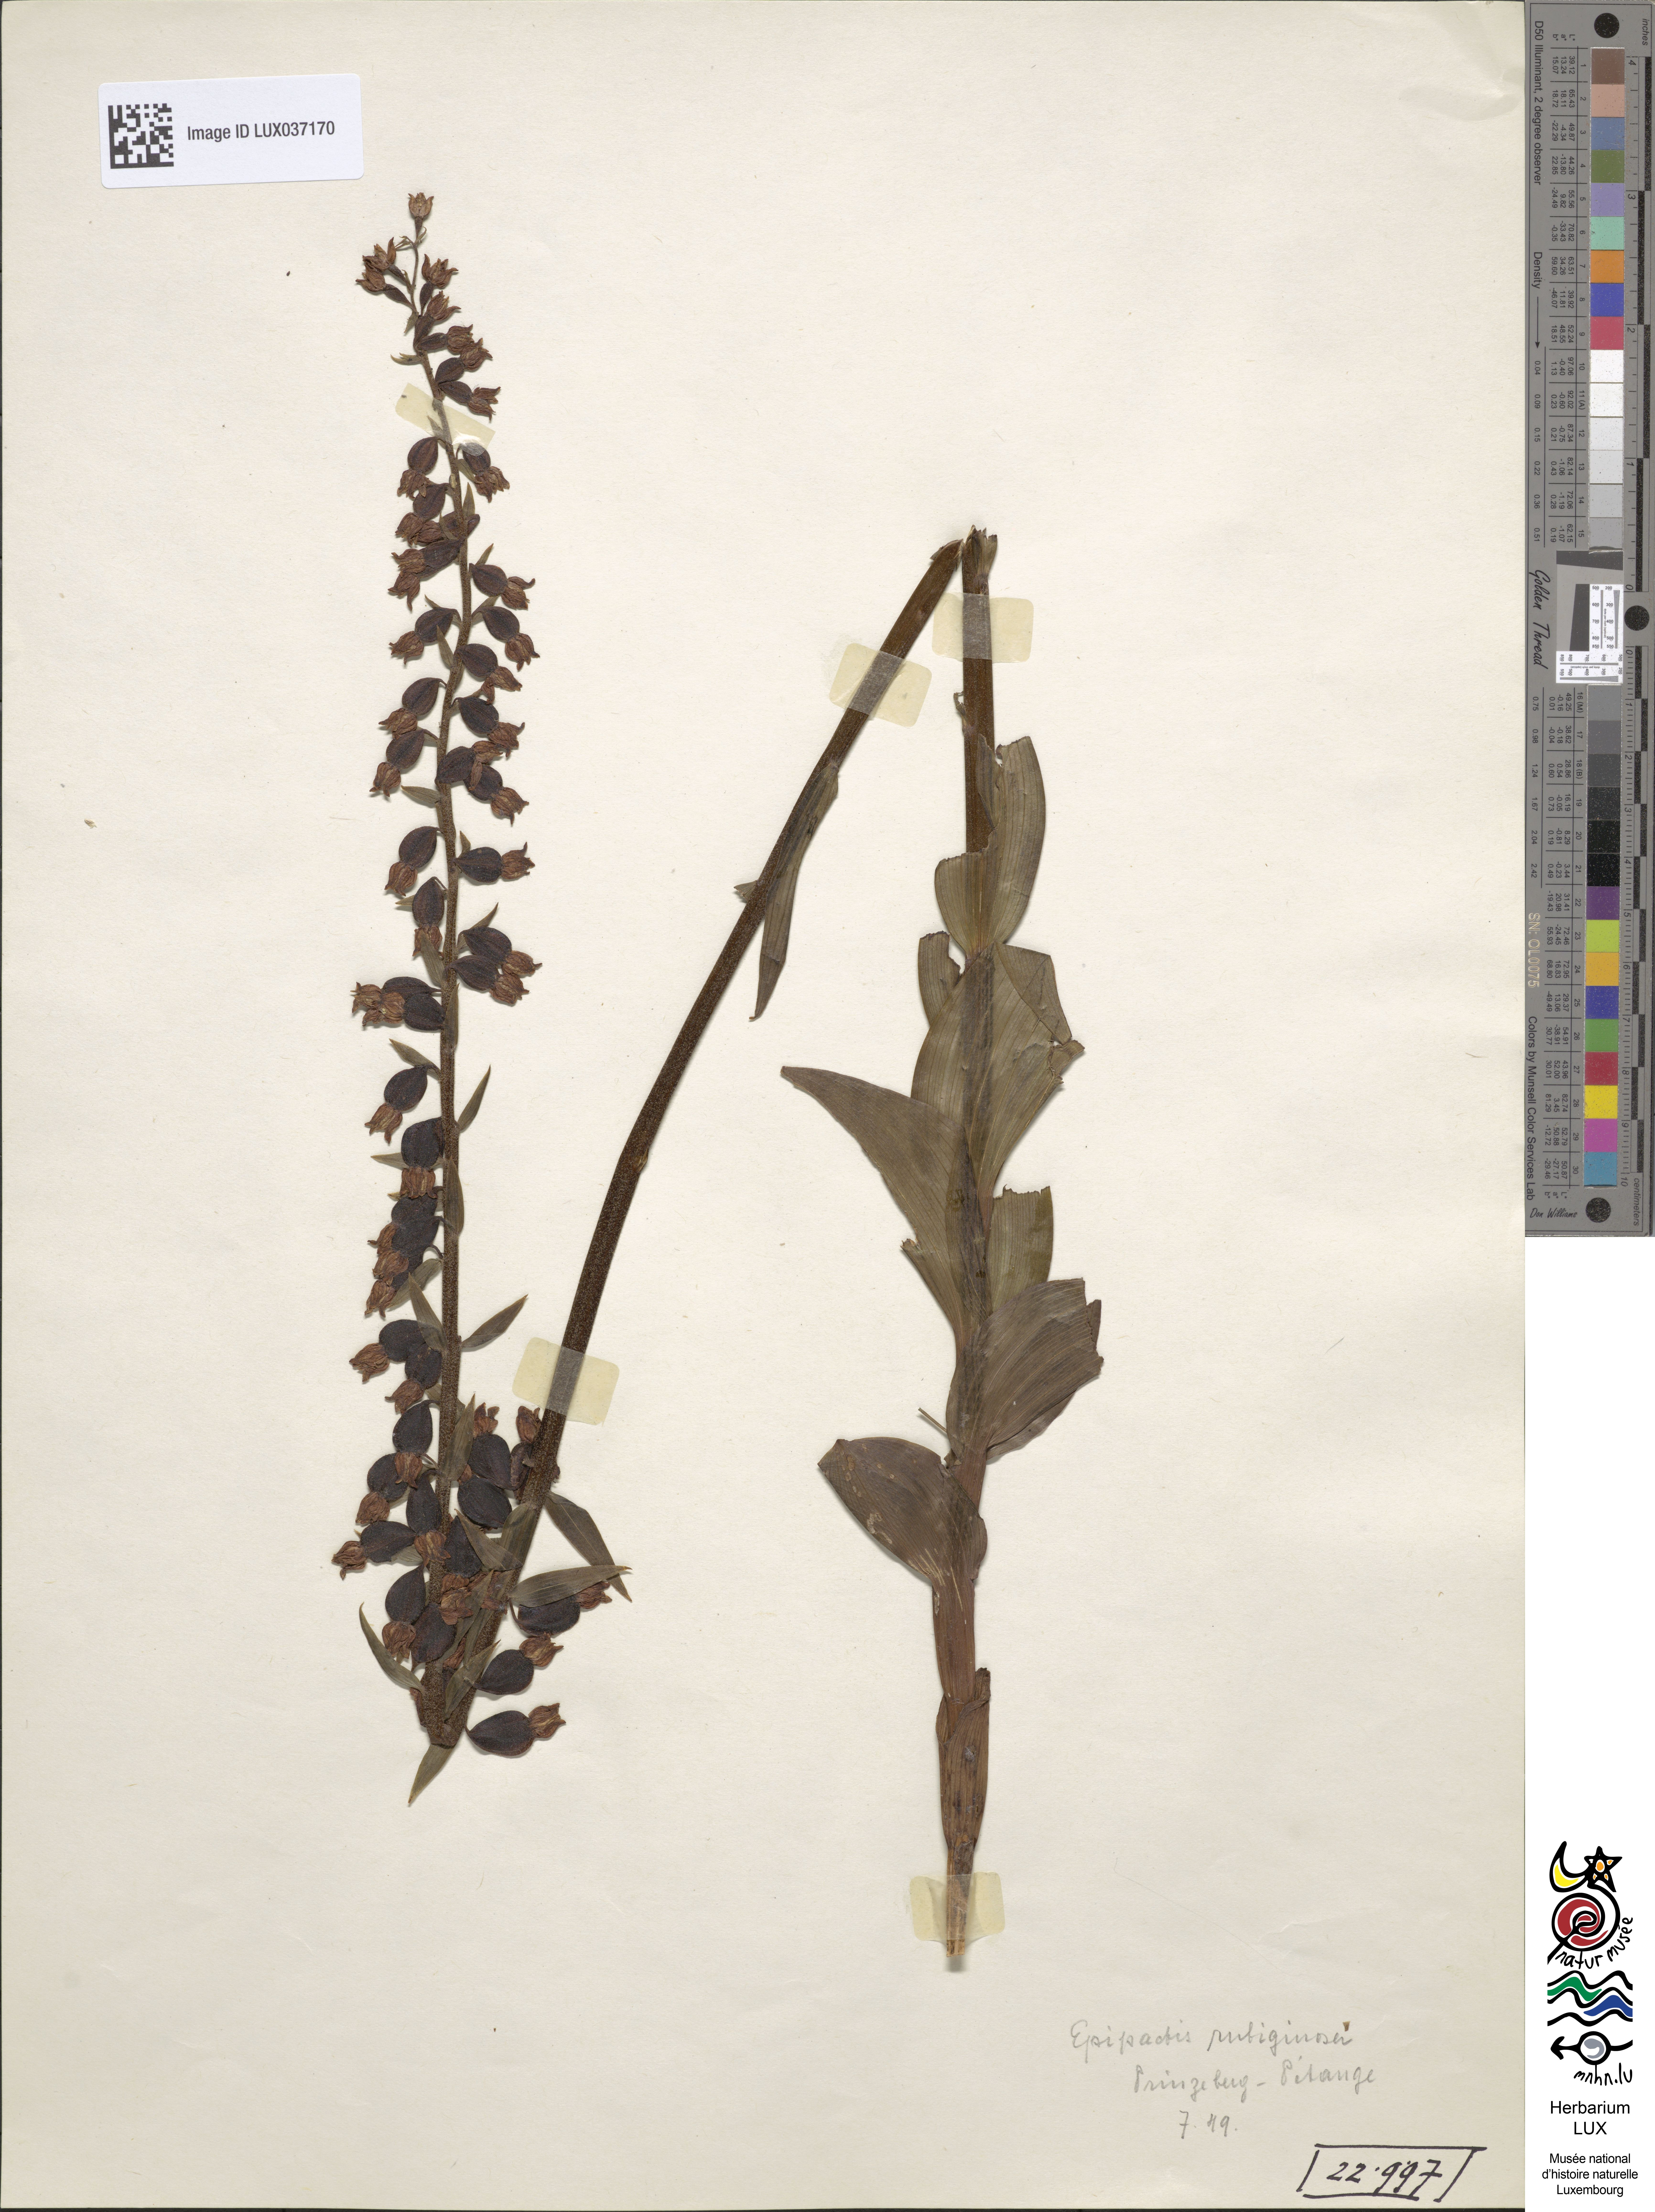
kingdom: Plantae
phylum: Tracheophyta
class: Liliopsida
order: Asparagales
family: Orchidaceae
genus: Epipactis
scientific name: Epipactis atrorubens
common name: Dark-red helleborine
